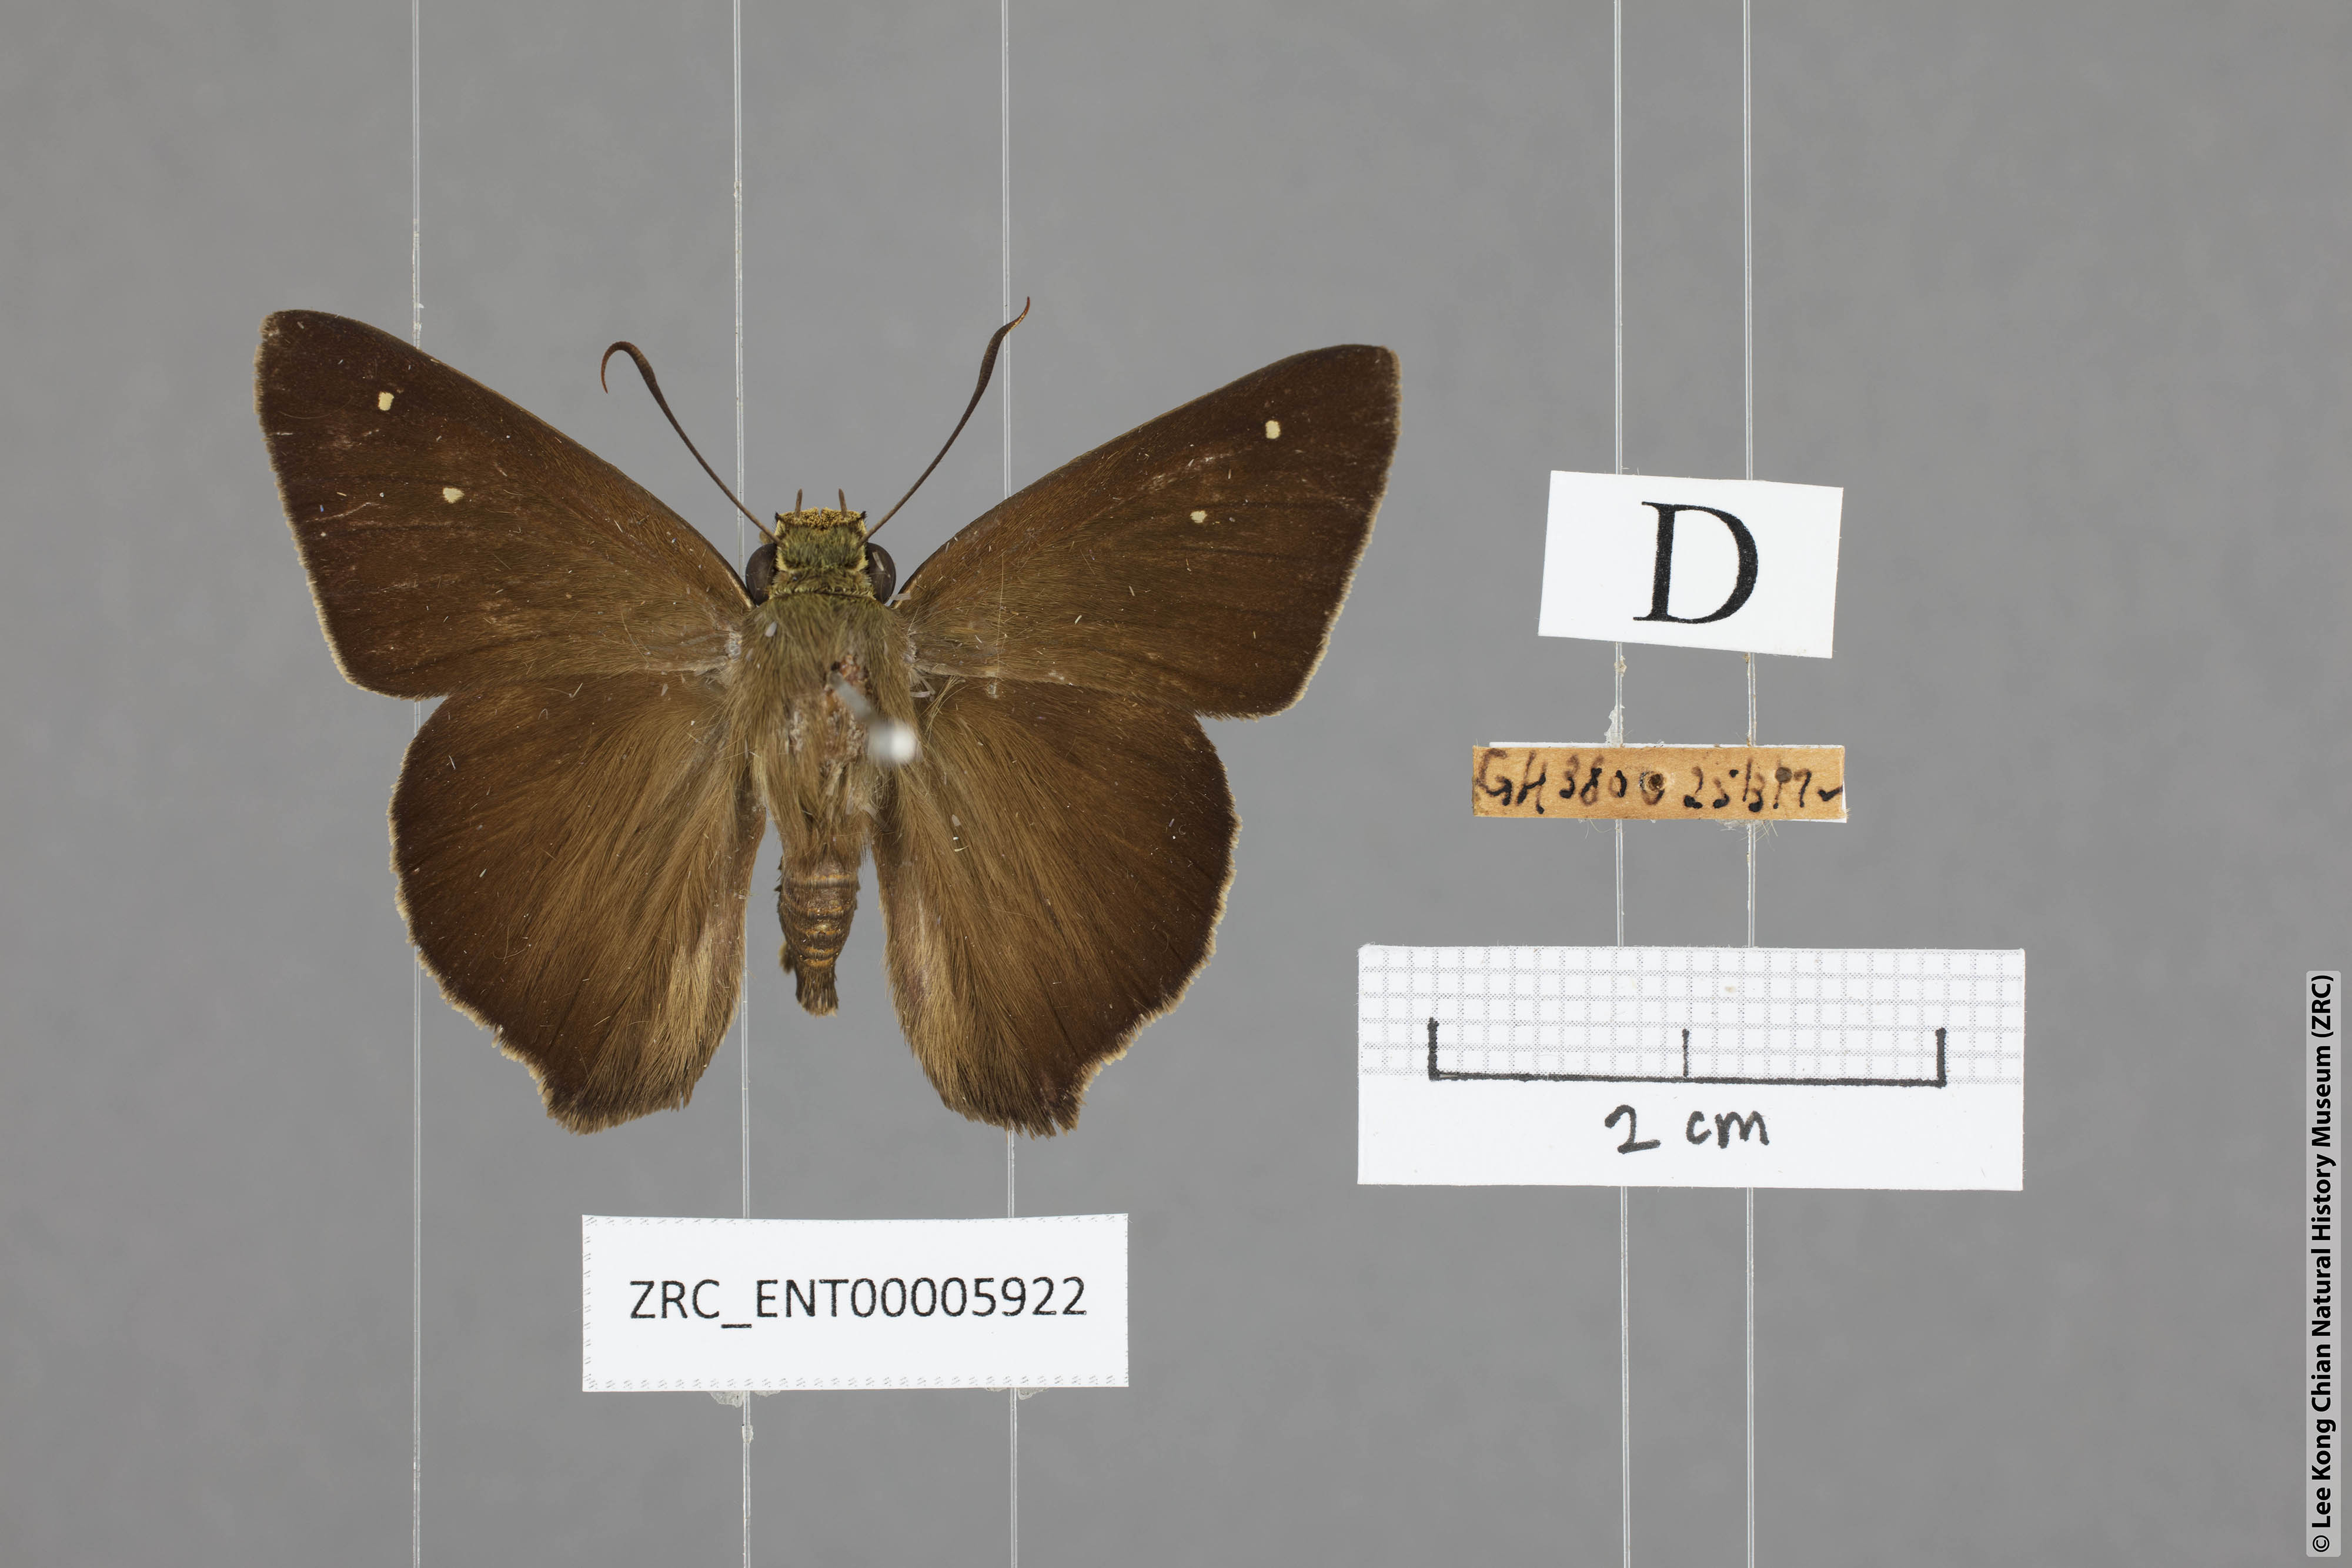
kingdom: Animalia
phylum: Arthropoda
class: Insecta
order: Lepidoptera
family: Hesperiidae
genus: Hasora
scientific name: Hasora vitta
